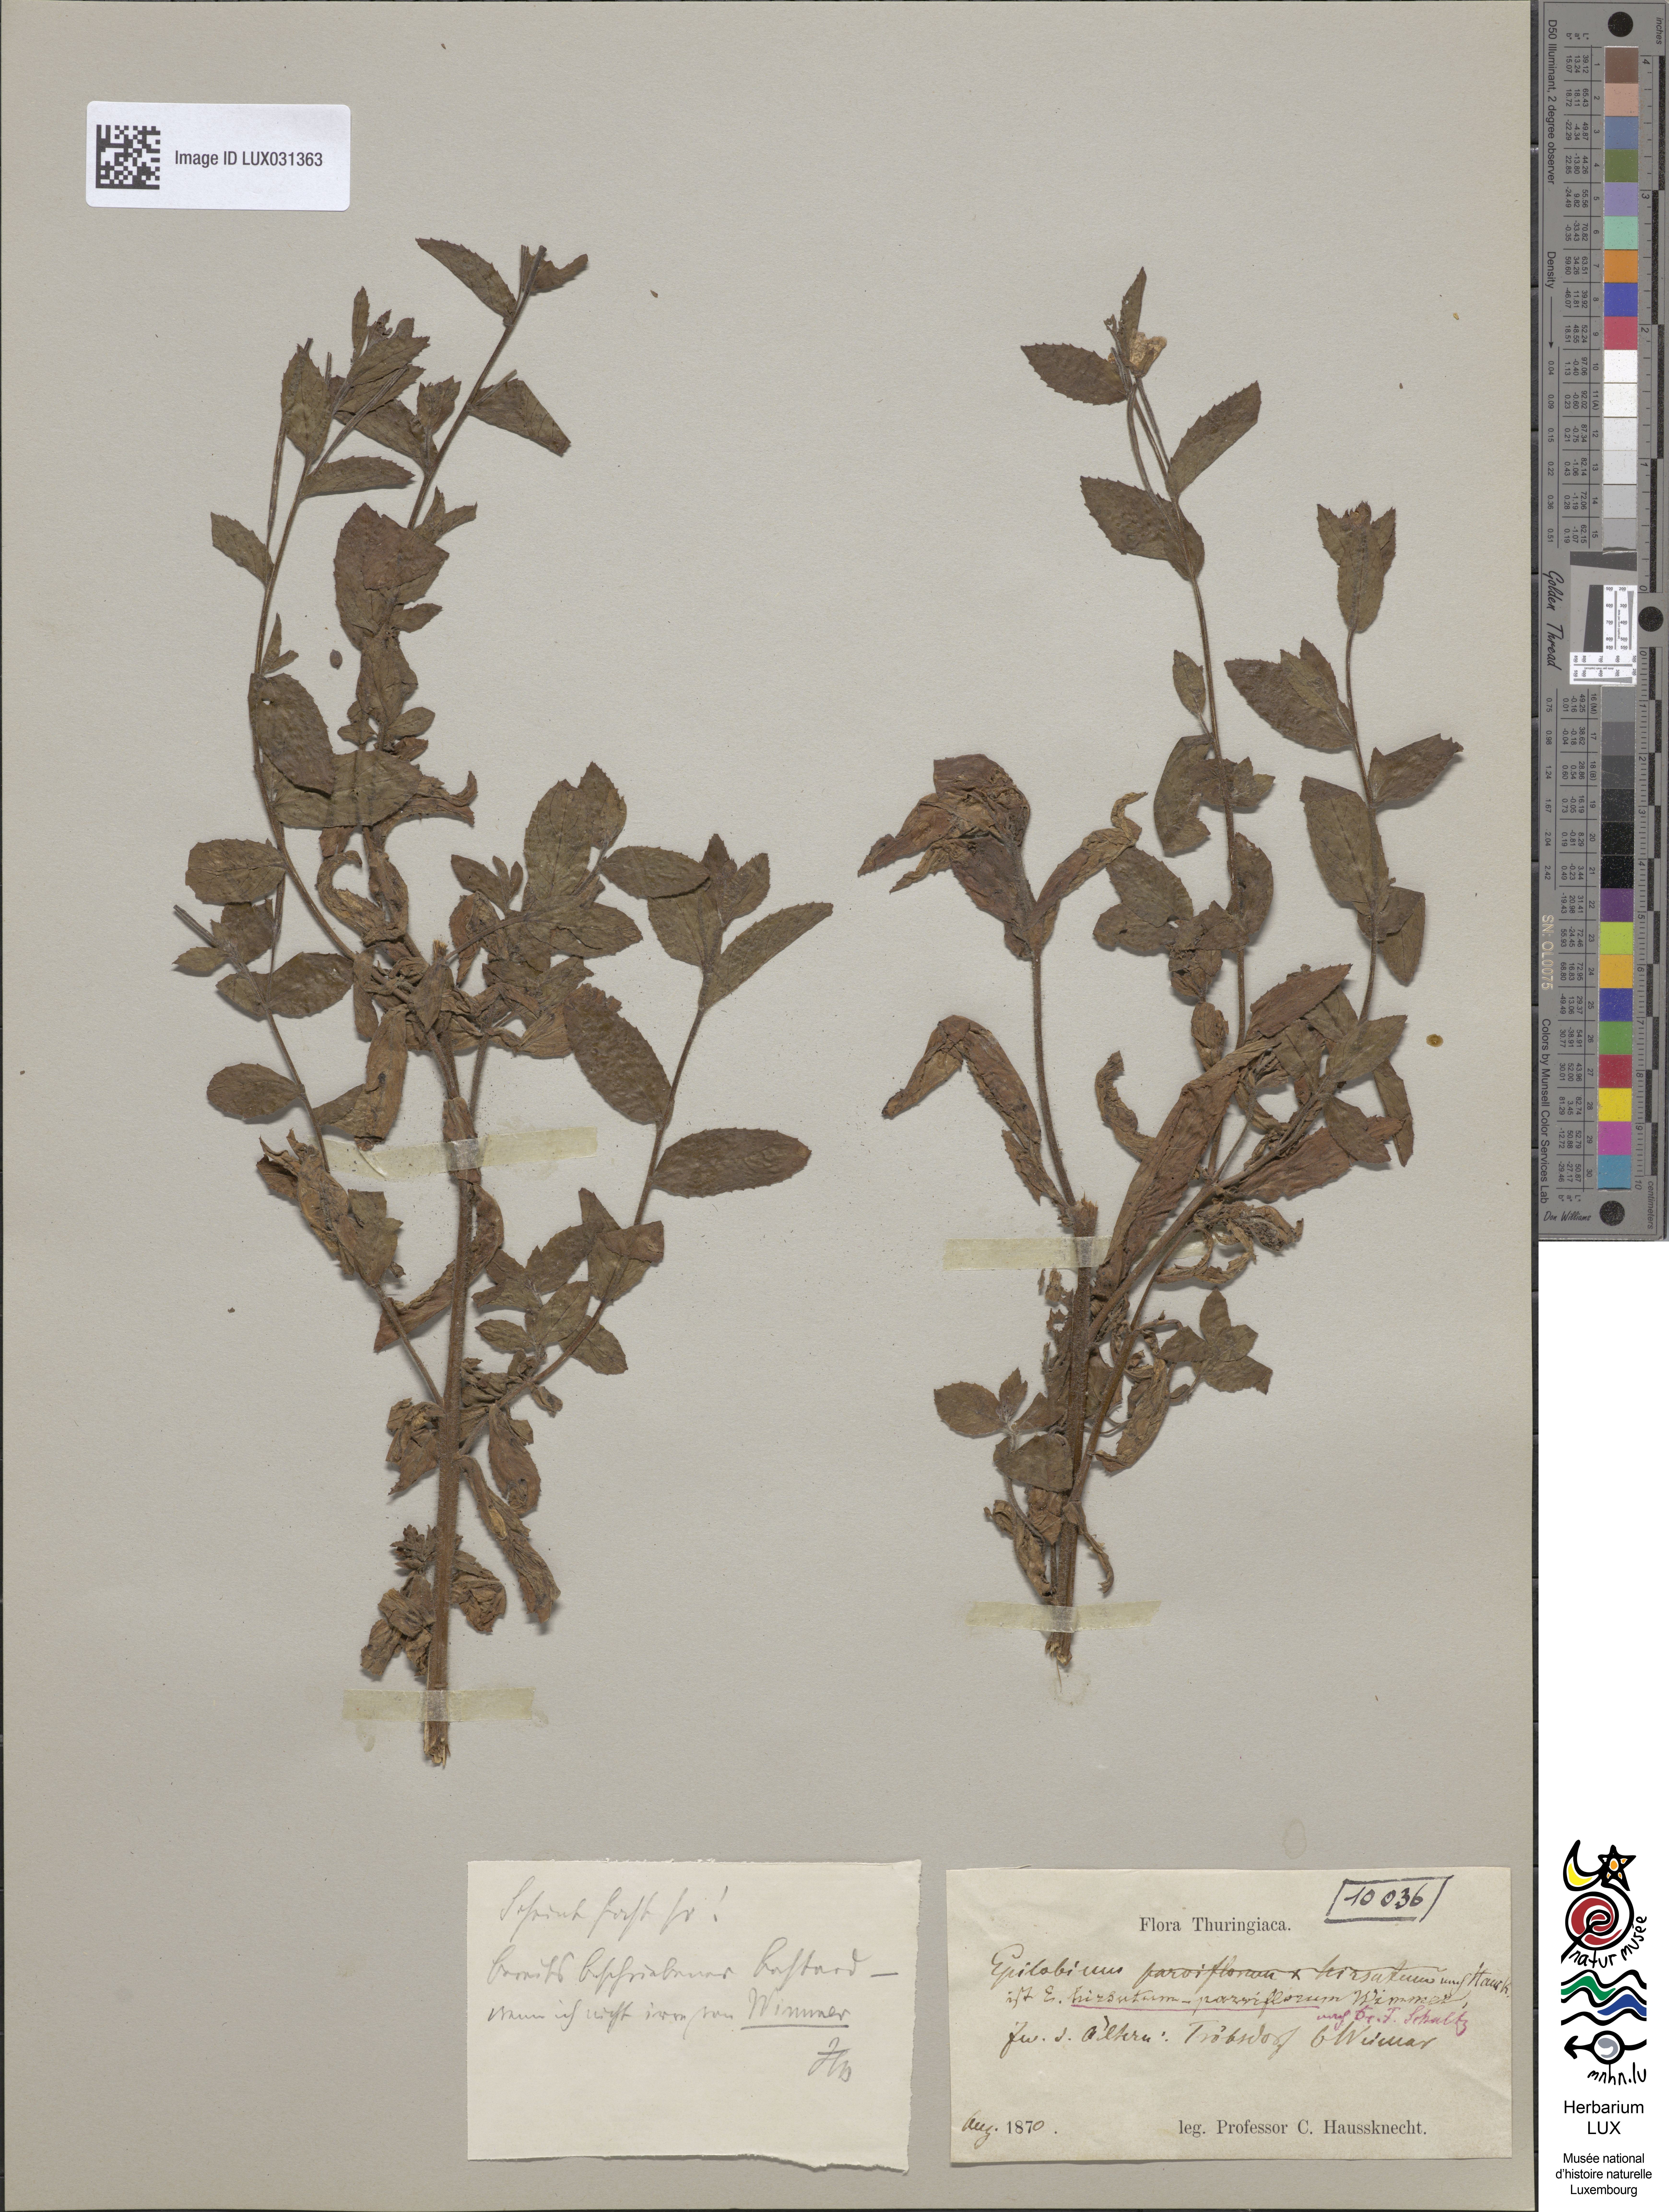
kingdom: Plantae
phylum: Tracheophyta
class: Magnoliopsida
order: Myrtales
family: Onagraceae
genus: Epilobium
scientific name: Epilobium hirsutum
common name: Great willowherb
